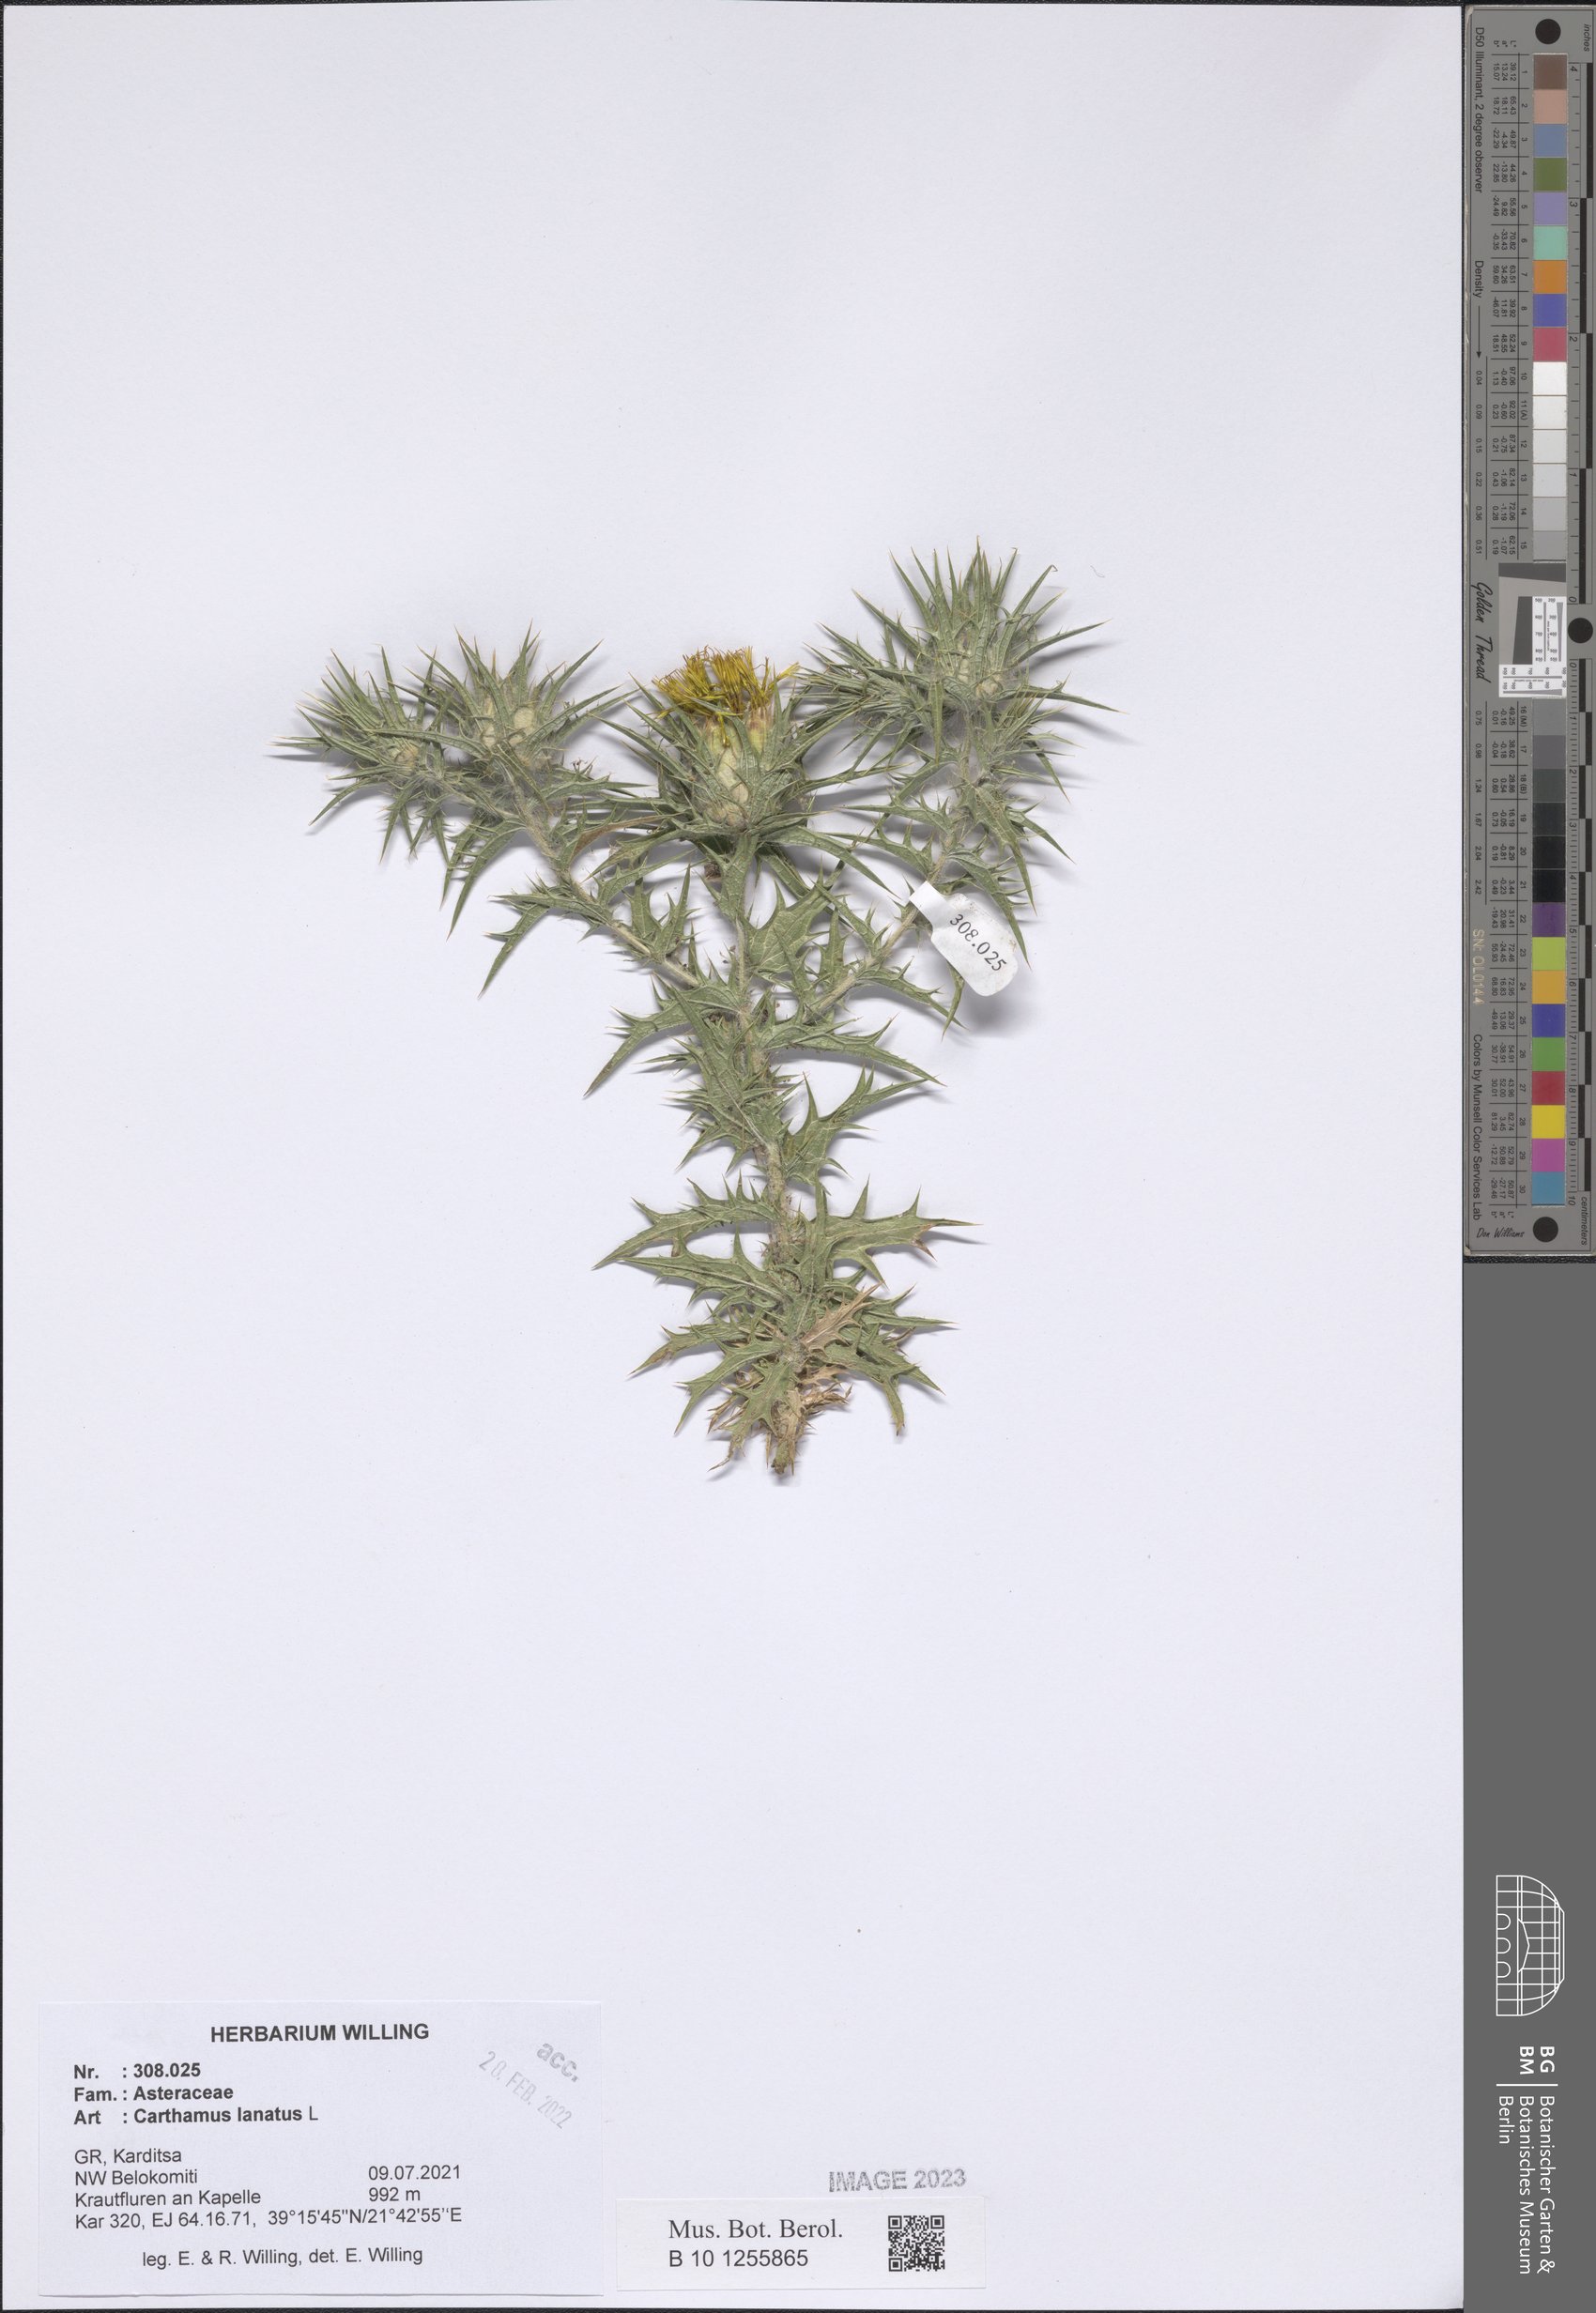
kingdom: Plantae
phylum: Tracheophyta
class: Magnoliopsida
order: Asterales
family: Asteraceae
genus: Carthamus
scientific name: Carthamus lanatus
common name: Downy safflower
